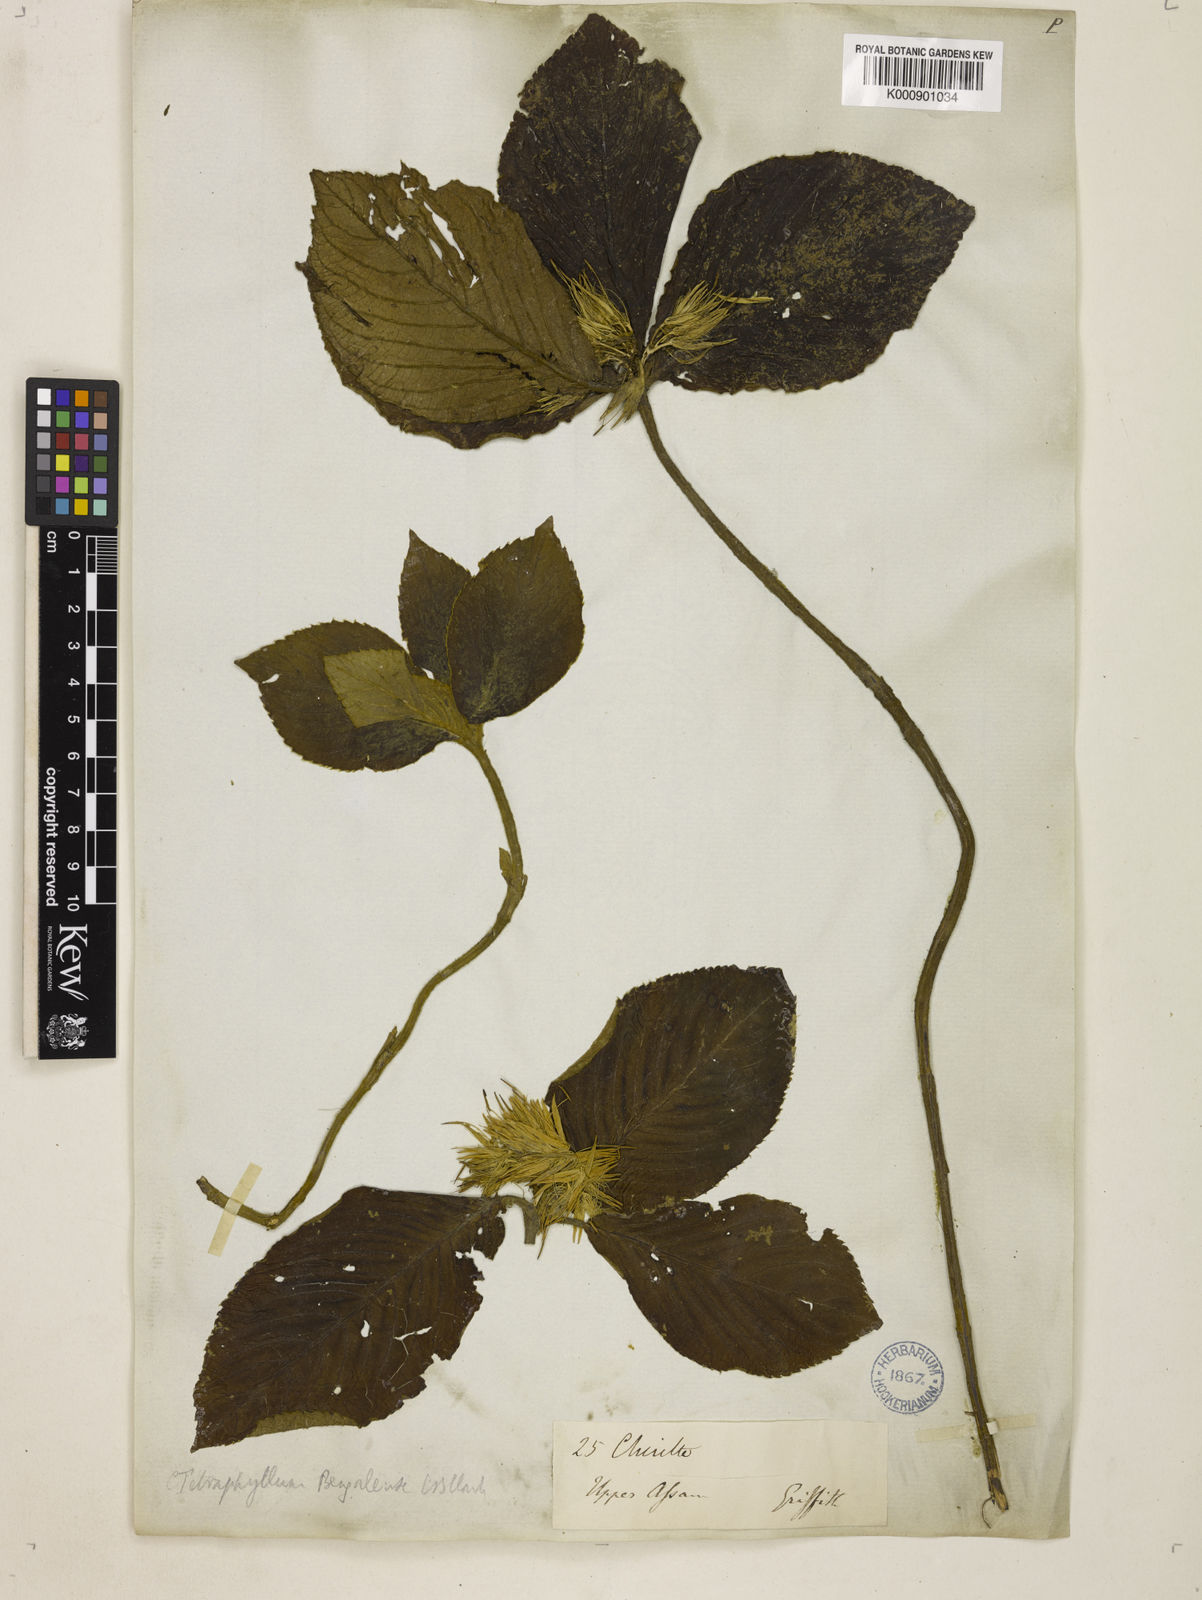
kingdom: Plantae
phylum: Tracheophyta
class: Magnoliopsida
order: Lamiales
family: Gesneriaceae
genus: Tetraphylloides
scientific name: Tetraphylloides bengalensis
